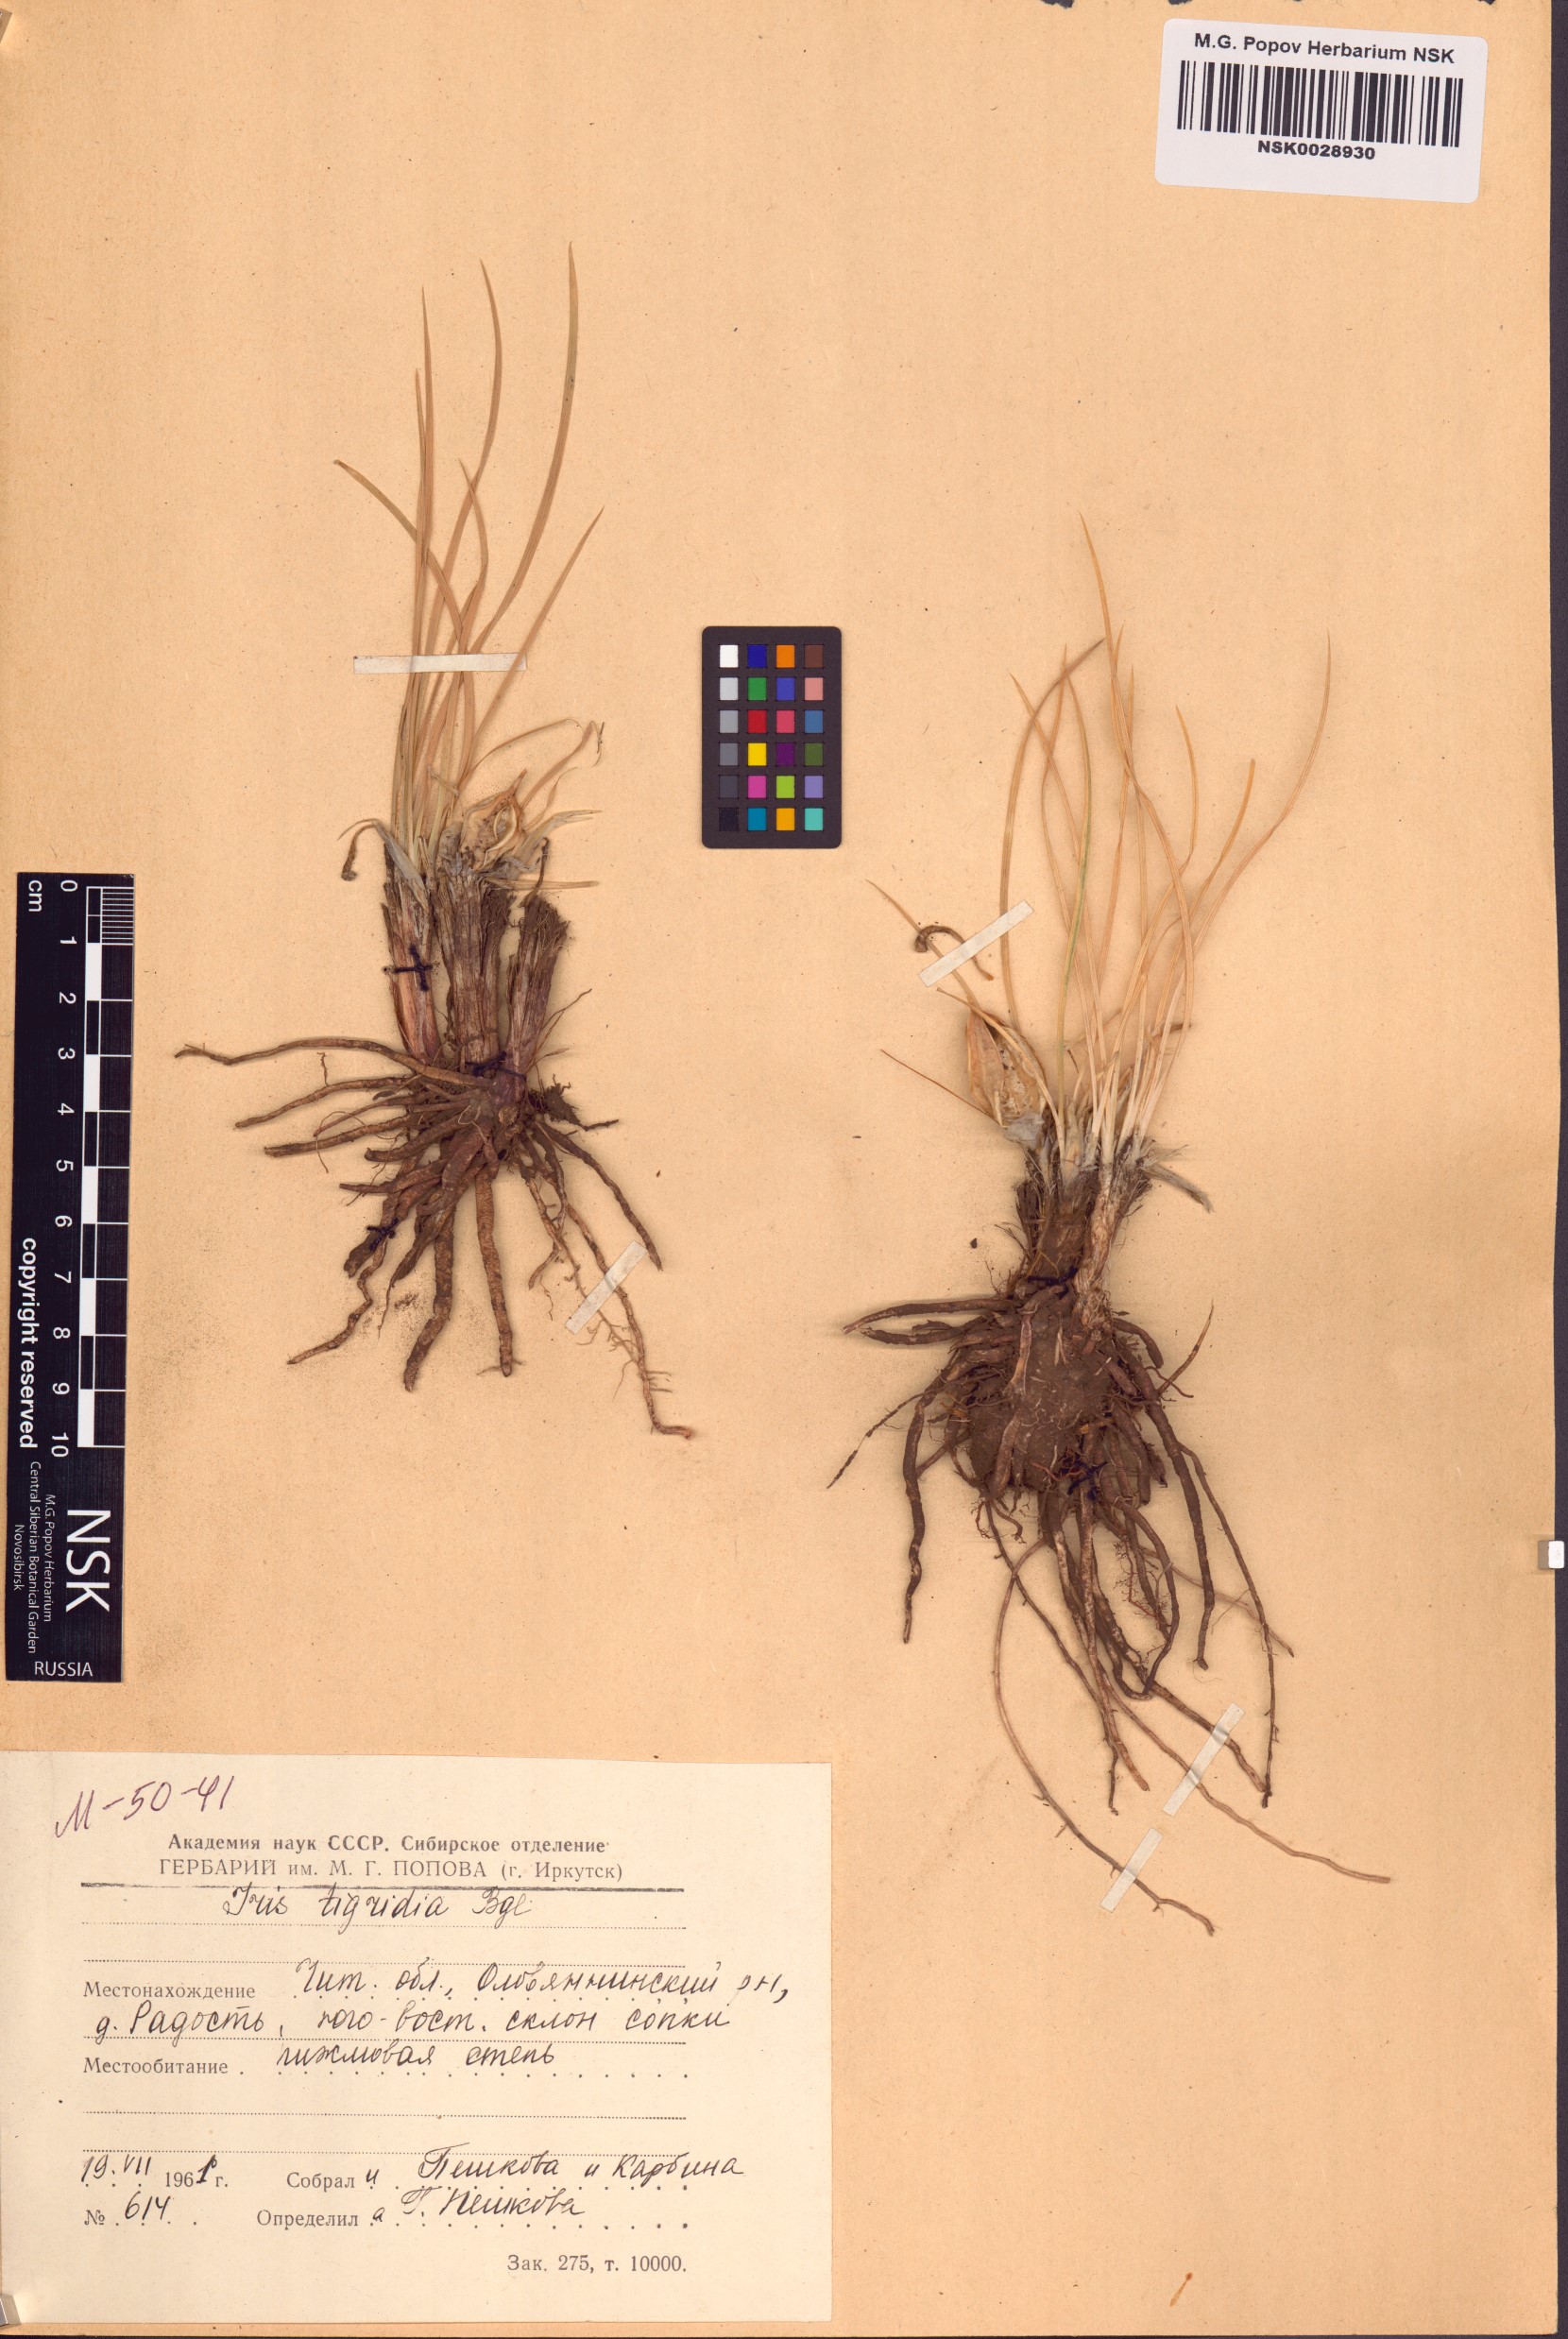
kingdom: Plantae
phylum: Tracheophyta
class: Liliopsida
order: Asparagales
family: Iridaceae
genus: Iris
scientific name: Iris tigridia
